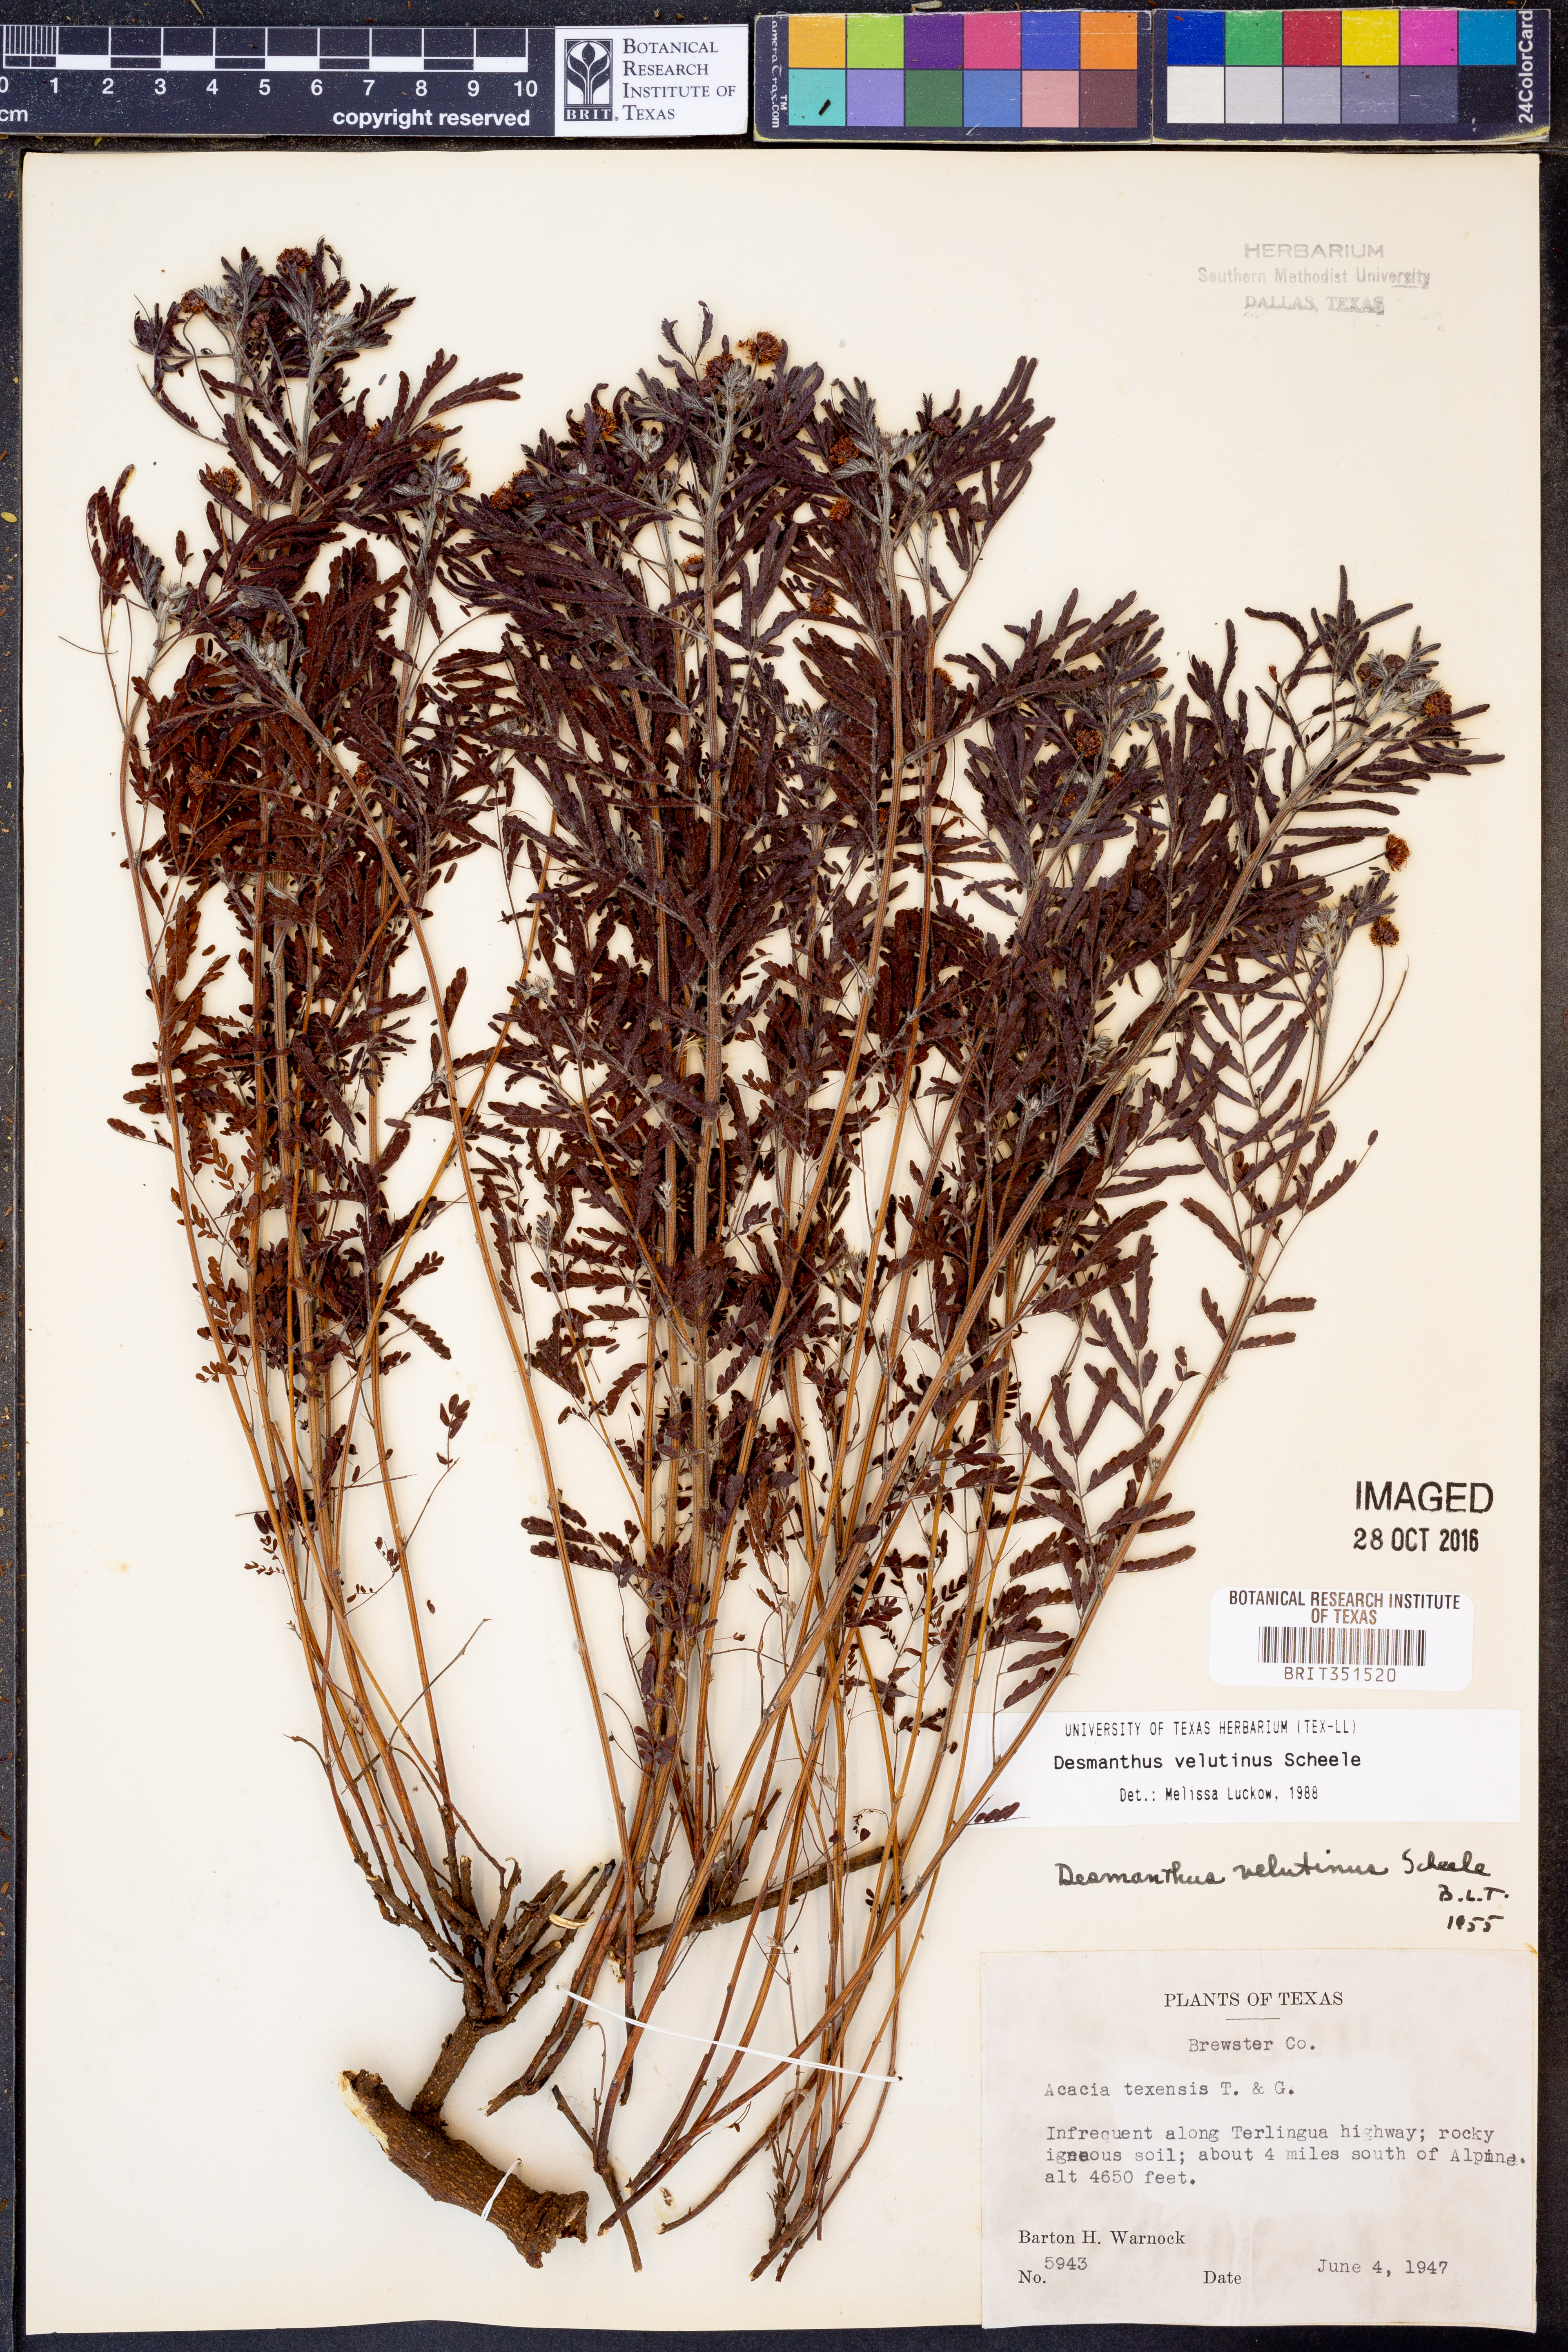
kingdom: Plantae
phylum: Tracheophyta
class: Magnoliopsida
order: Fabales
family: Fabaceae
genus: Desmanthus
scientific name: Desmanthus velutinus
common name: Velvet bundle-flower
